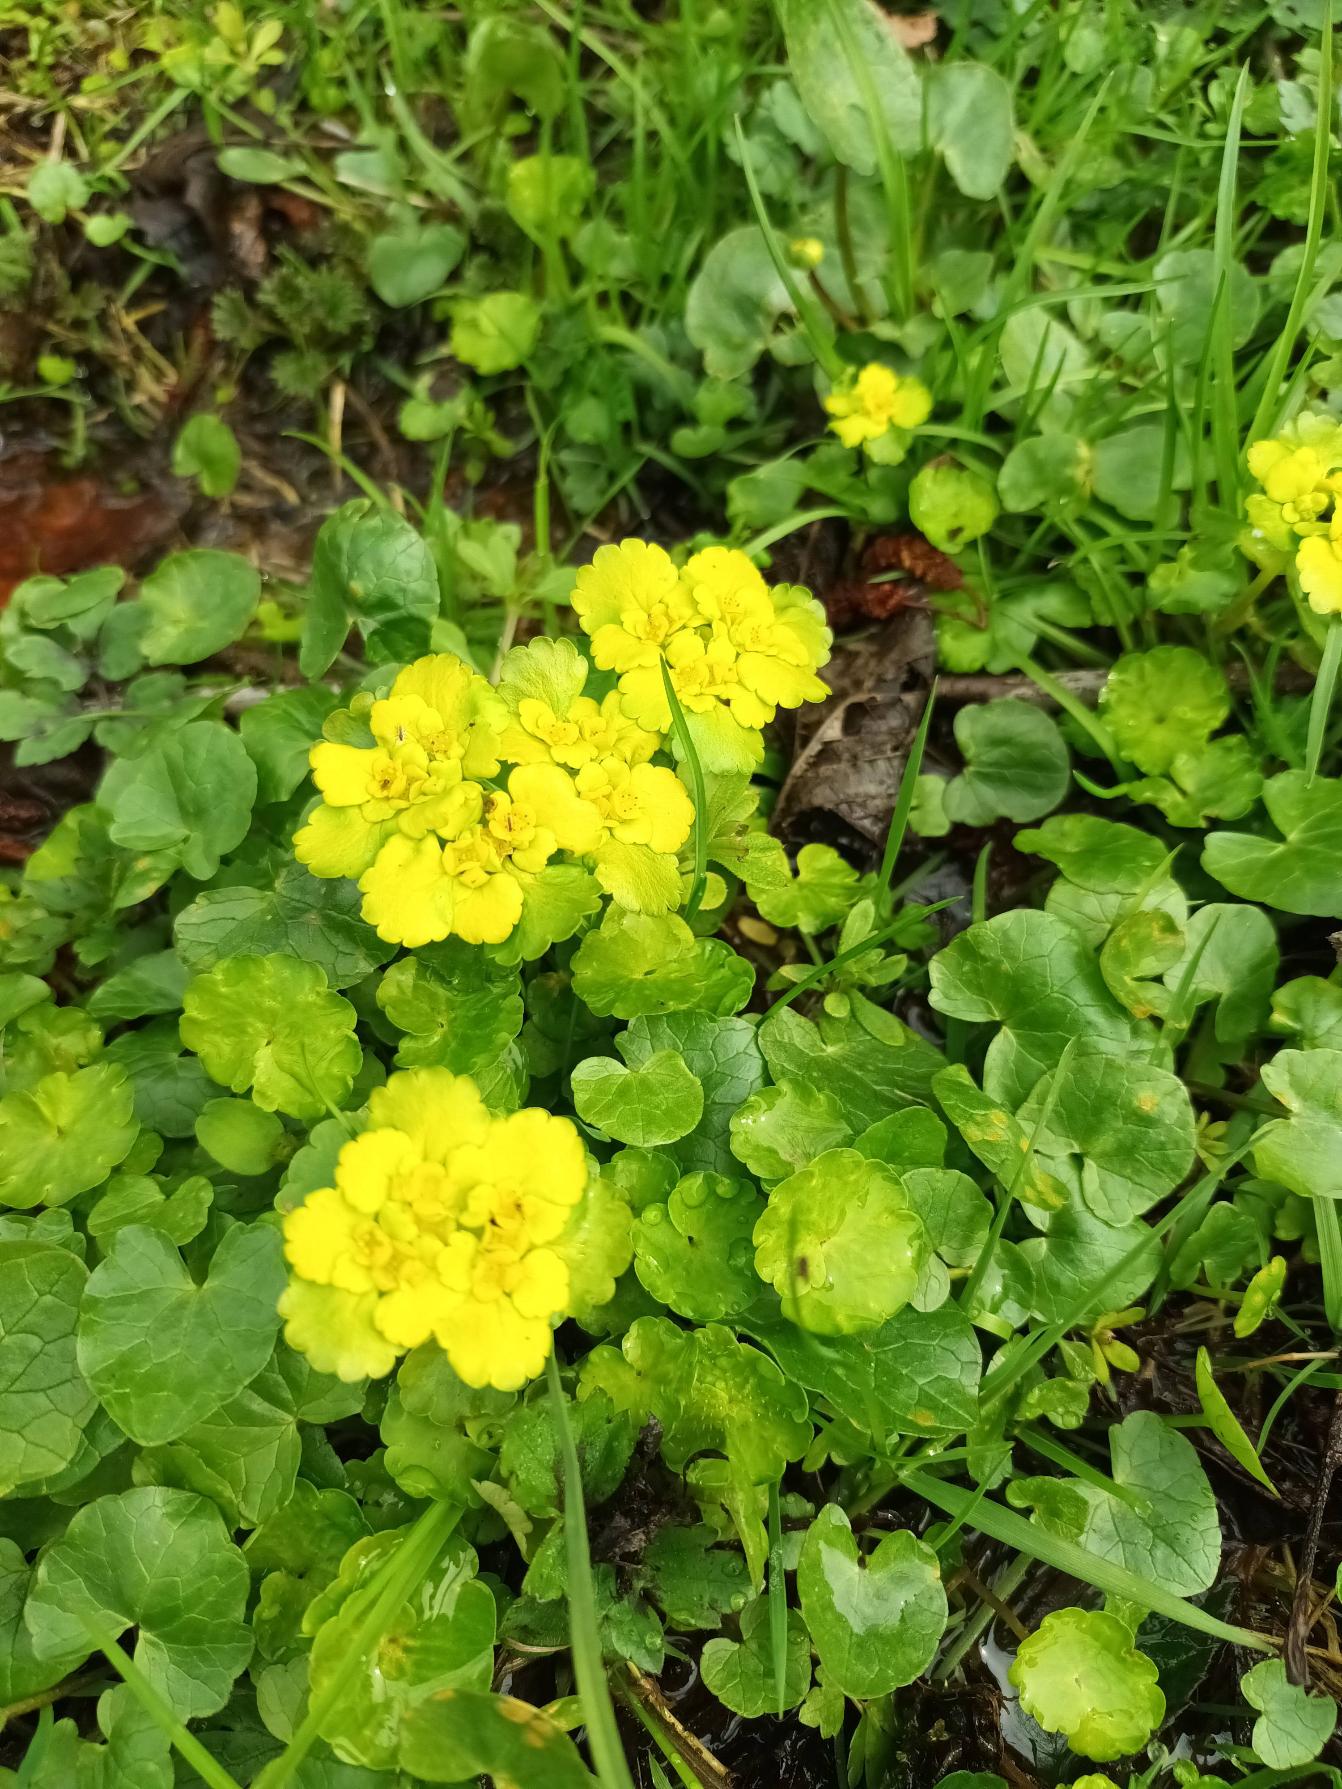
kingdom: Plantae
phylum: Tracheophyta
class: Magnoliopsida
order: Saxifragales
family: Saxifragaceae
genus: Chrysosplenium
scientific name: Chrysosplenium alternifolium
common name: Almindelig milturt
